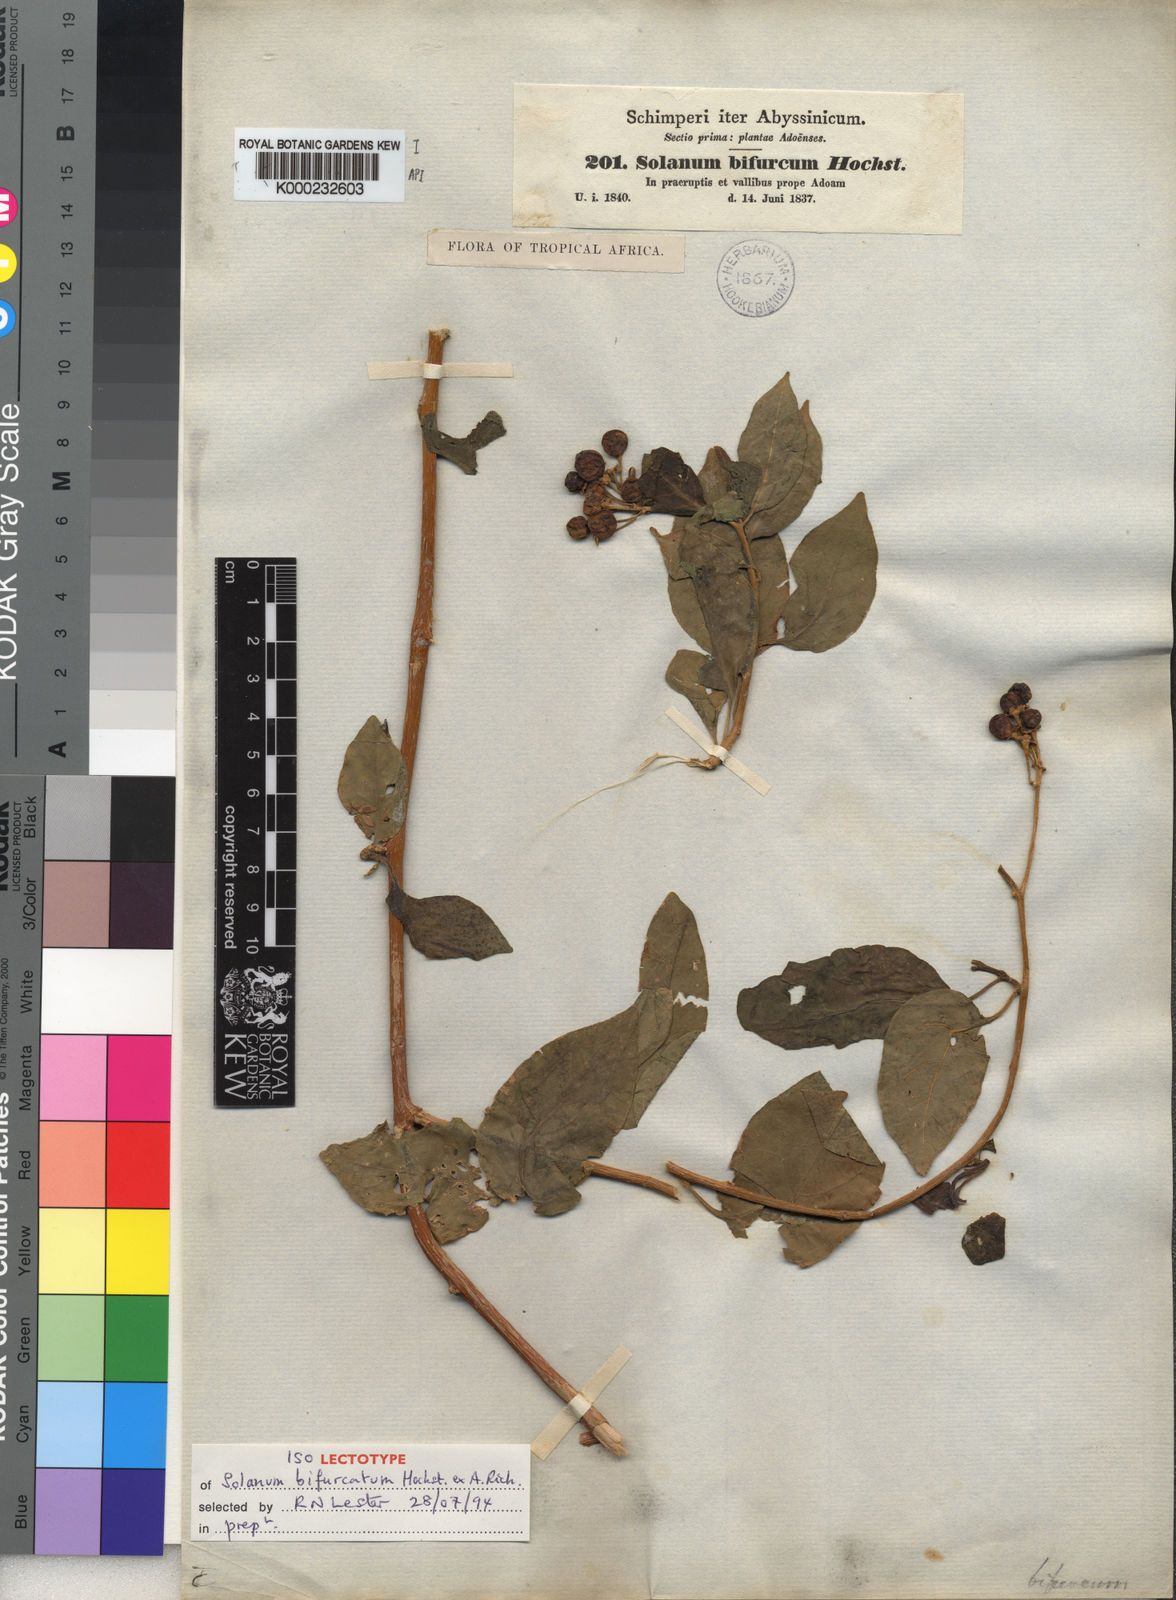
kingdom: Plantae
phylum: Tracheophyta
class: Magnoliopsida
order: Solanales
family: Solanaceae
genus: Solanum
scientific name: Solanum terminale
